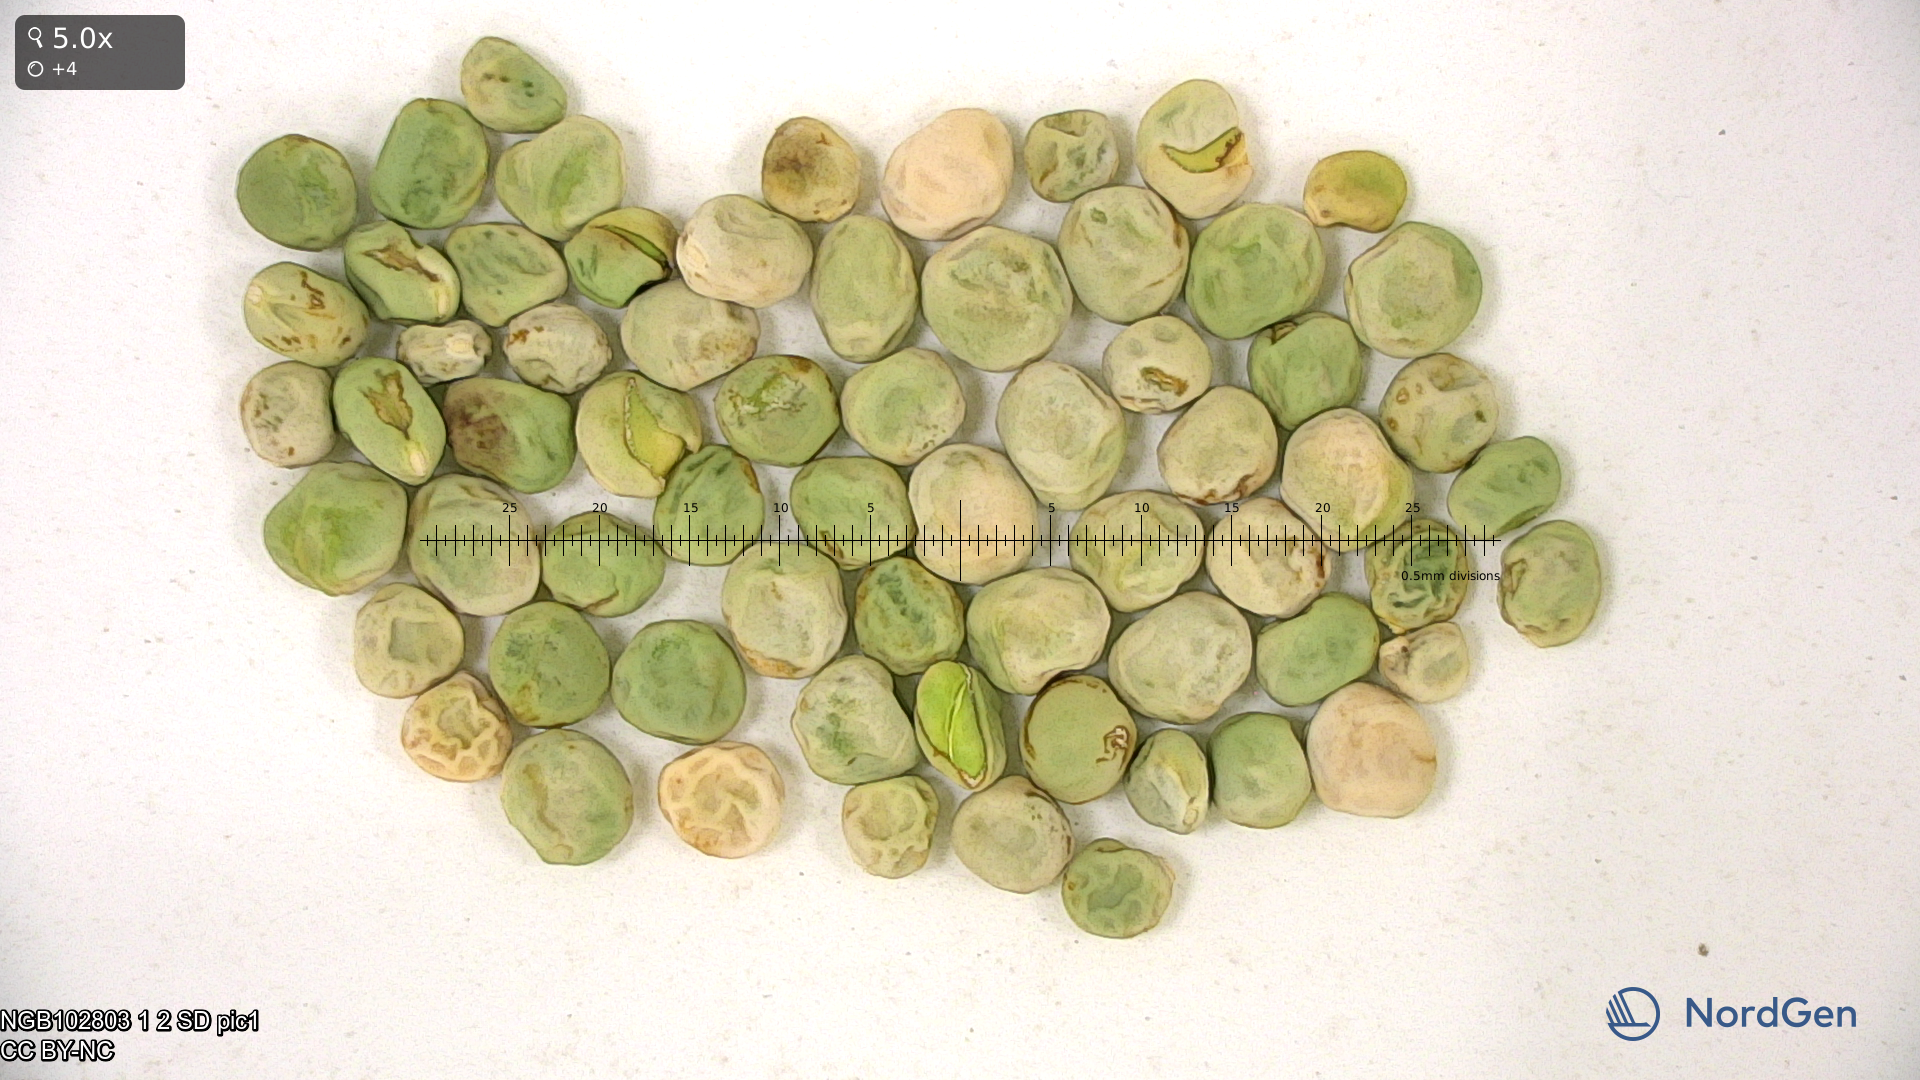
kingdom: Plantae
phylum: Tracheophyta
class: Magnoliopsida
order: Fabales
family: Fabaceae
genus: Lathyrus
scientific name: Lathyrus oleraceus
